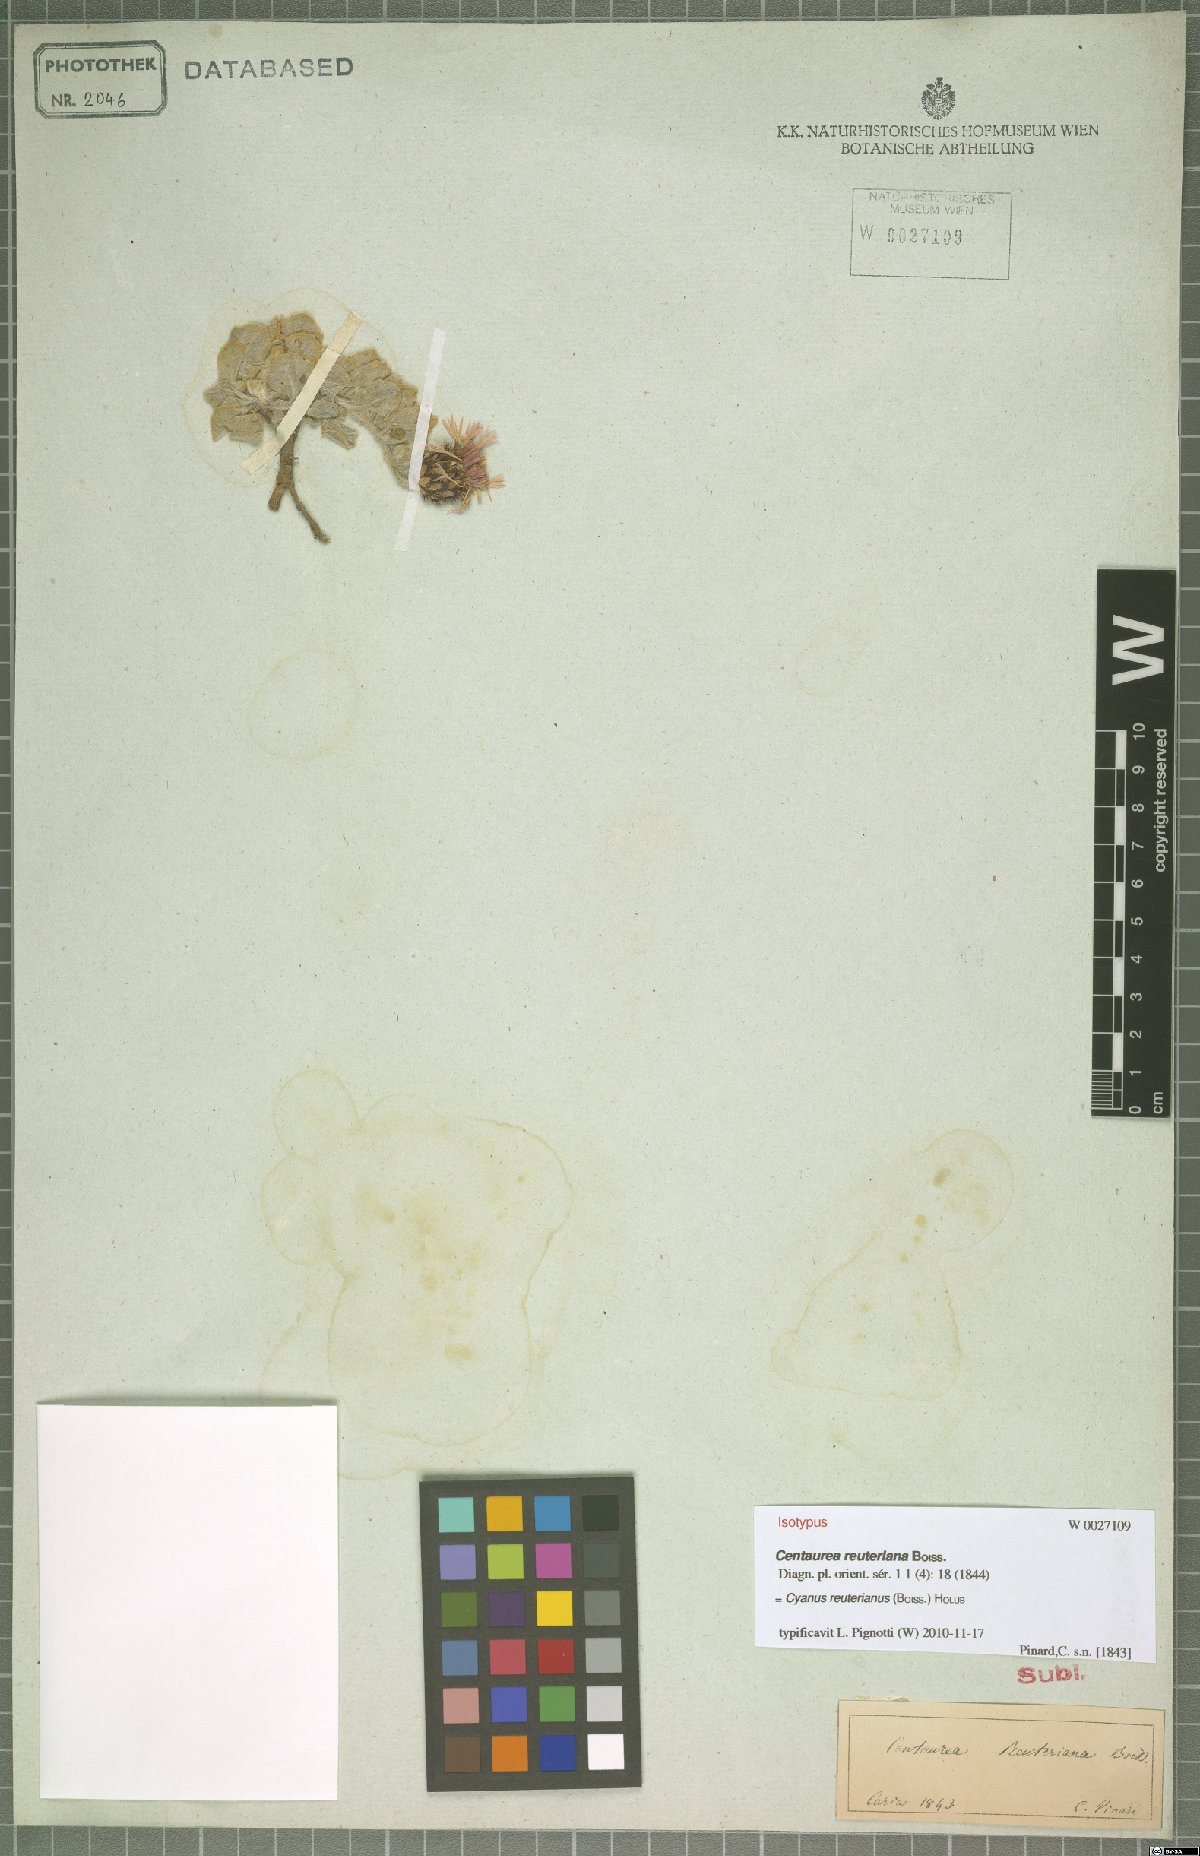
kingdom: Plantae
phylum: Tracheophyta
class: Magnoliopsida
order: Asterales
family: Asteraceae
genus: Centaurea
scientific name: Centaurea reuteriana
